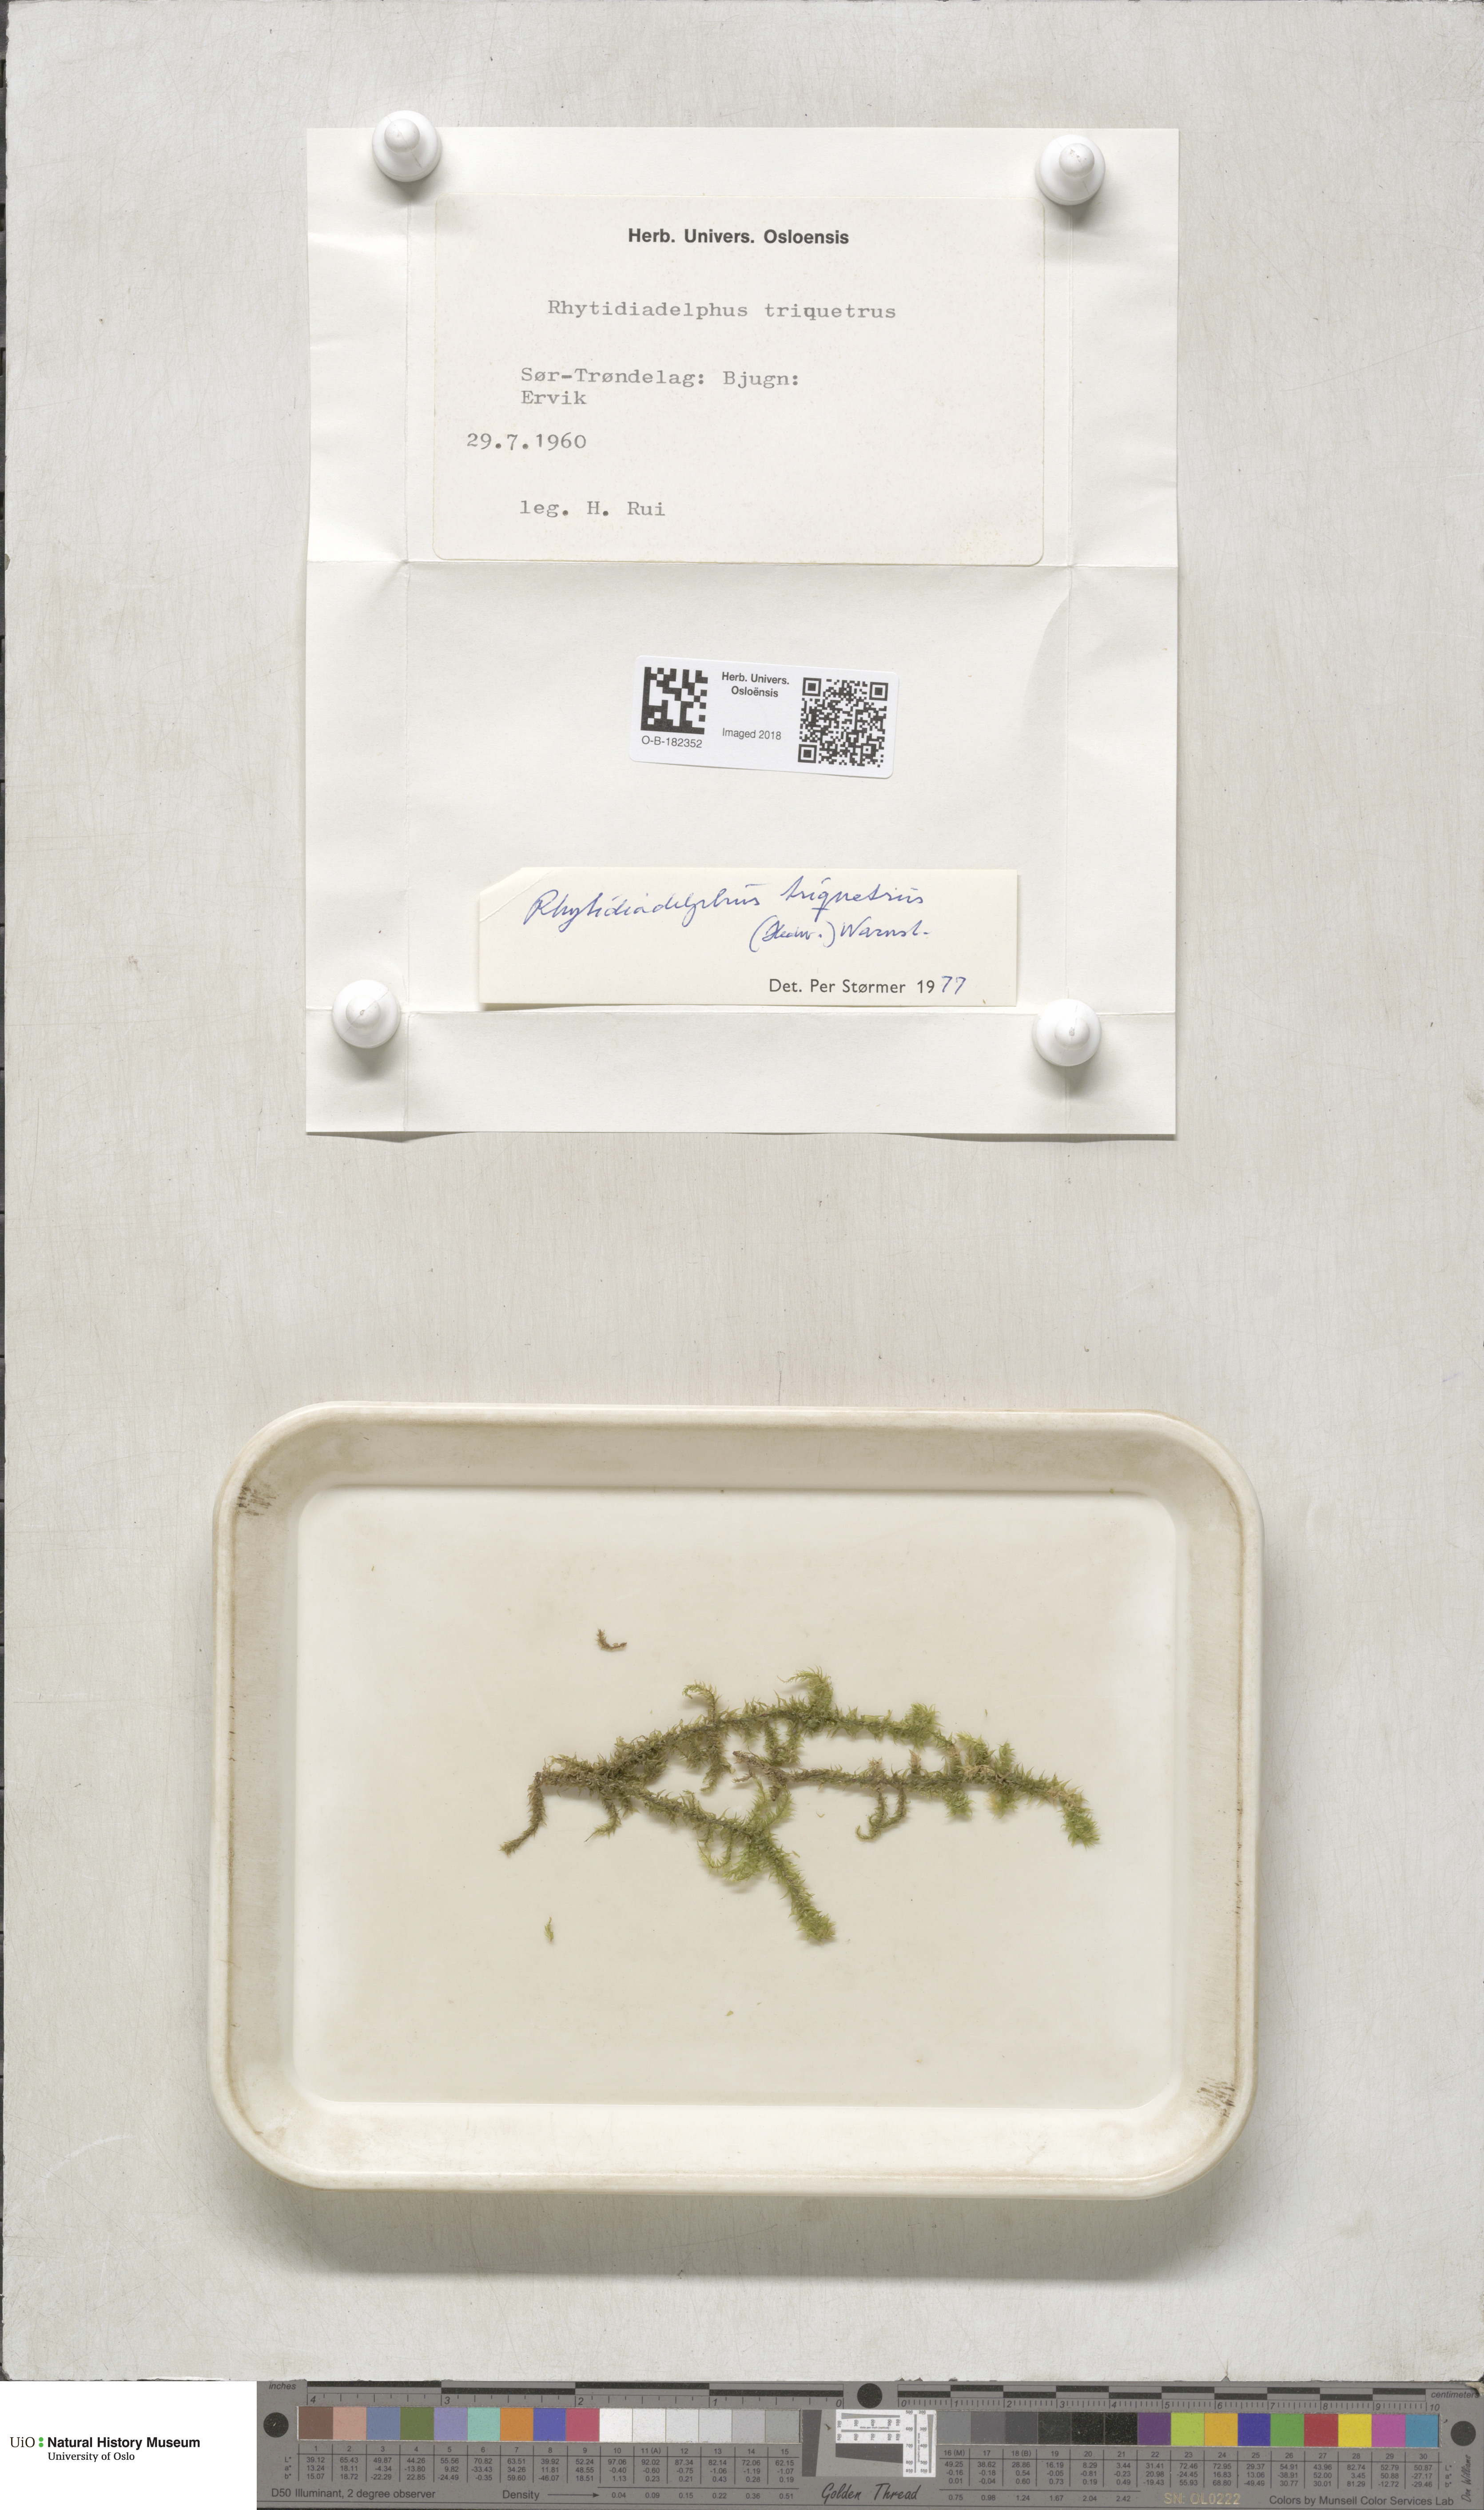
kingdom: Plantae
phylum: Bryophyta
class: Bryopsida
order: Hypnales
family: Hylocomiaceae
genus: Hylocomiadelphus
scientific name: Hylocomiadelphus triquetrus
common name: Rough goose neck moss
